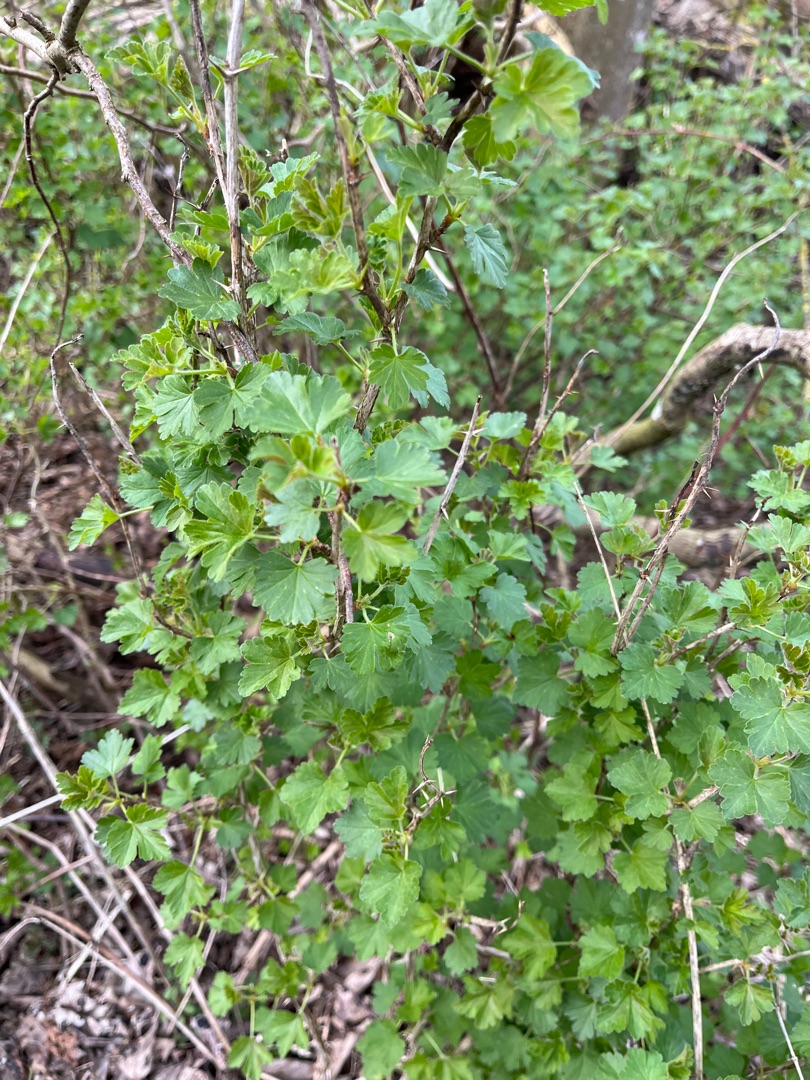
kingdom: Plantae
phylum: Tracheophyta
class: Magnoliopsida
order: Saxifragales
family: Grossulariaceae
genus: Ribes
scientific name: Ribes uva-crispa
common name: Stikkelsbær
